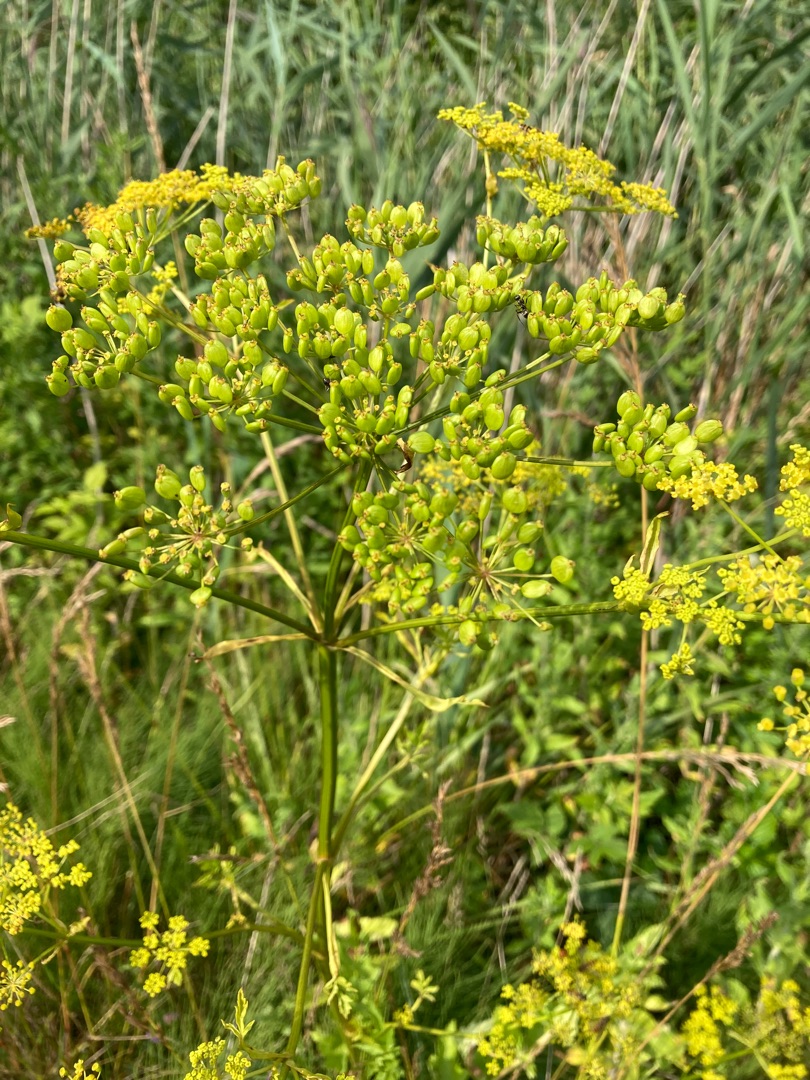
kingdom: Plantae
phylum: Tracheophyta
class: Magnoliopsida
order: Apiales
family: Apiaceae
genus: Pastinaca
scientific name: Pastinaca sativa
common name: Have-pastinak
